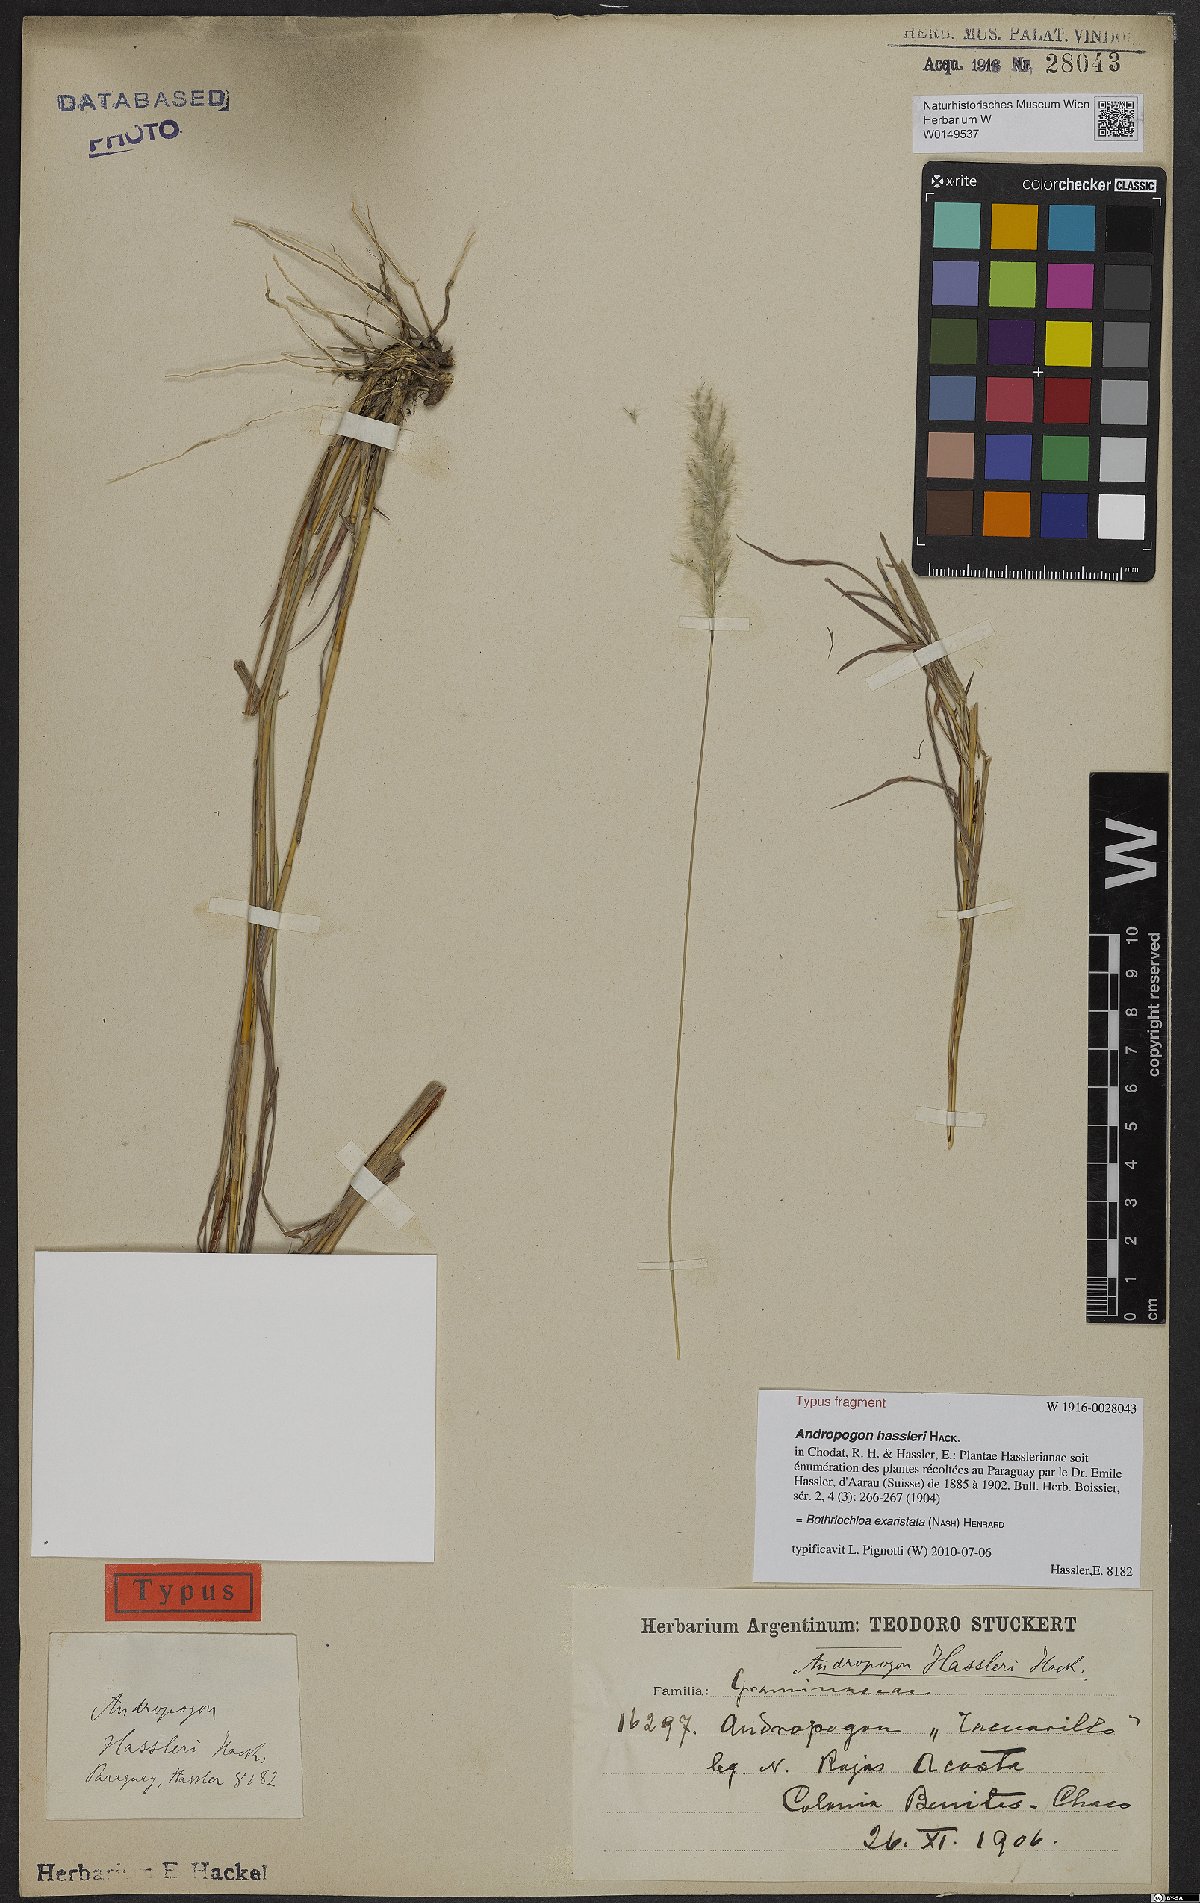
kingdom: Plantae
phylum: Tracheophyta
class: Liliopsida
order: Poales
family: Poaceae
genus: Bothriochloa
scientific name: Bothriochloa exaristata
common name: Awnless bluestem
